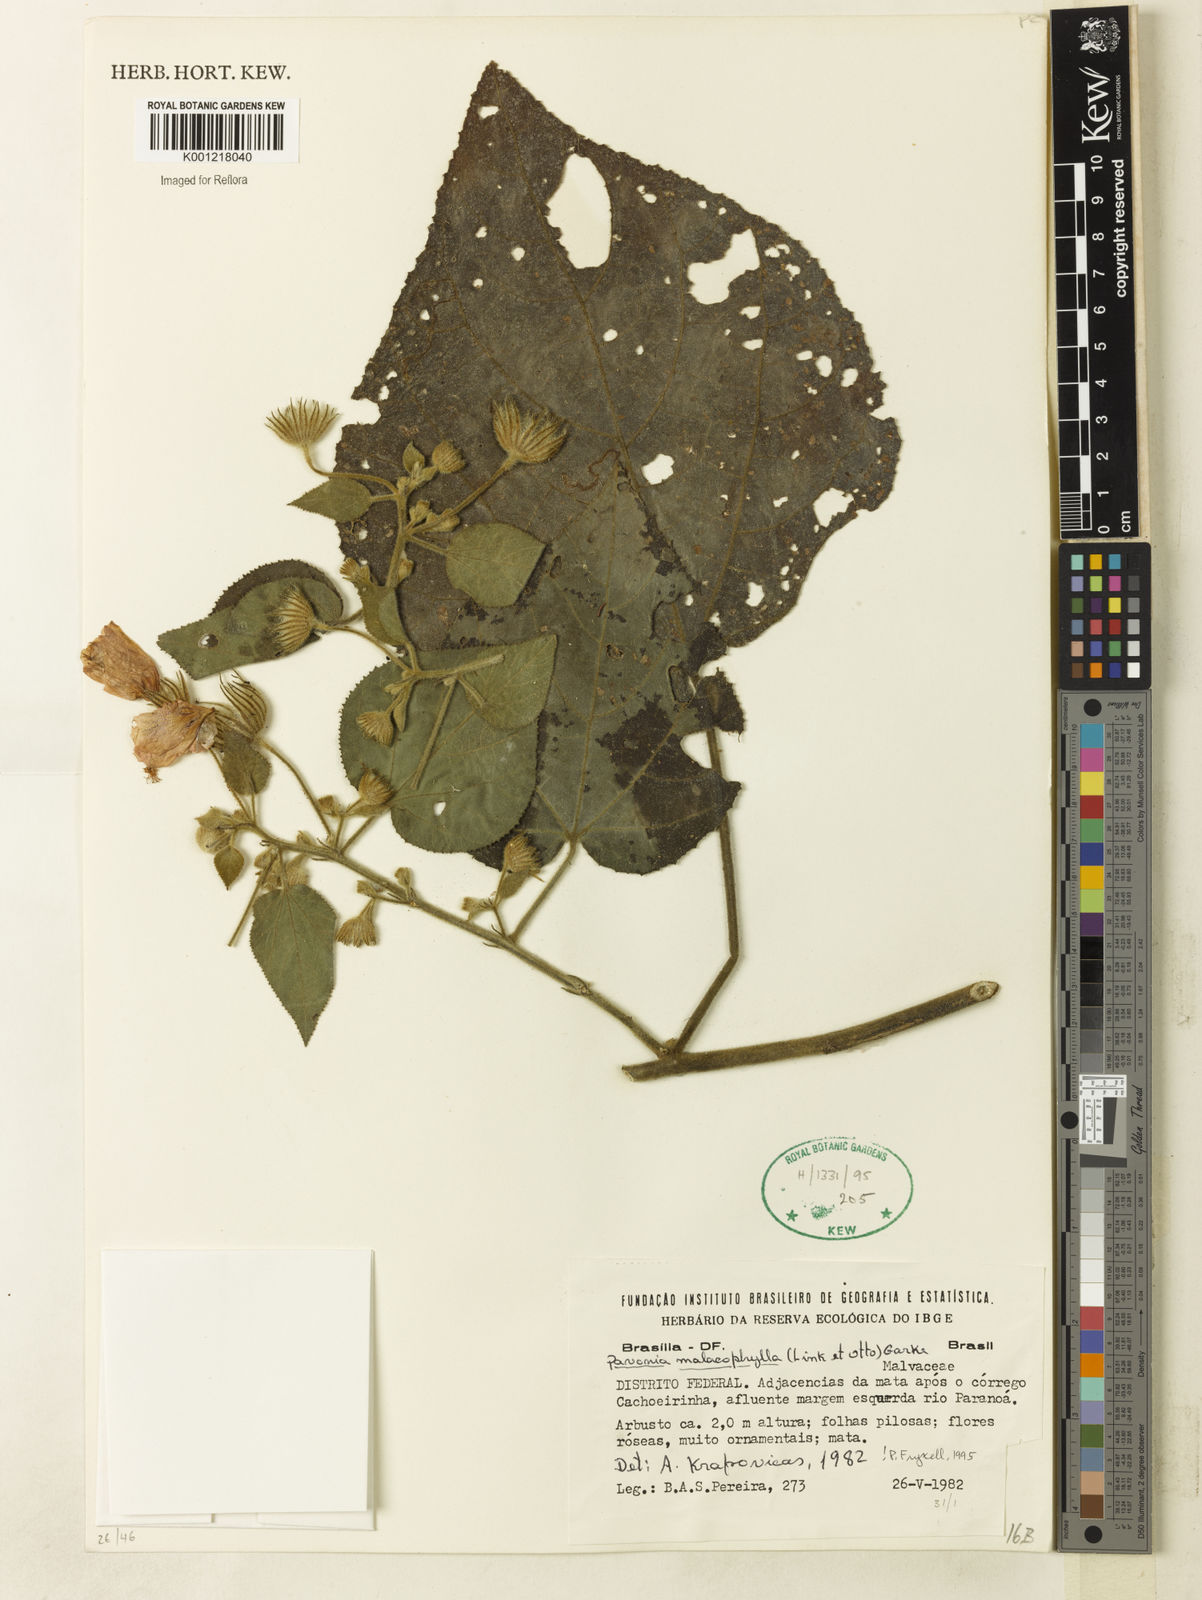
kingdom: Plantae
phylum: Tracheophyta
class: Magnoliopsida
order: Malvales
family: Malvaceae
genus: Pavonia
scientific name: Pavonia malacophylla
